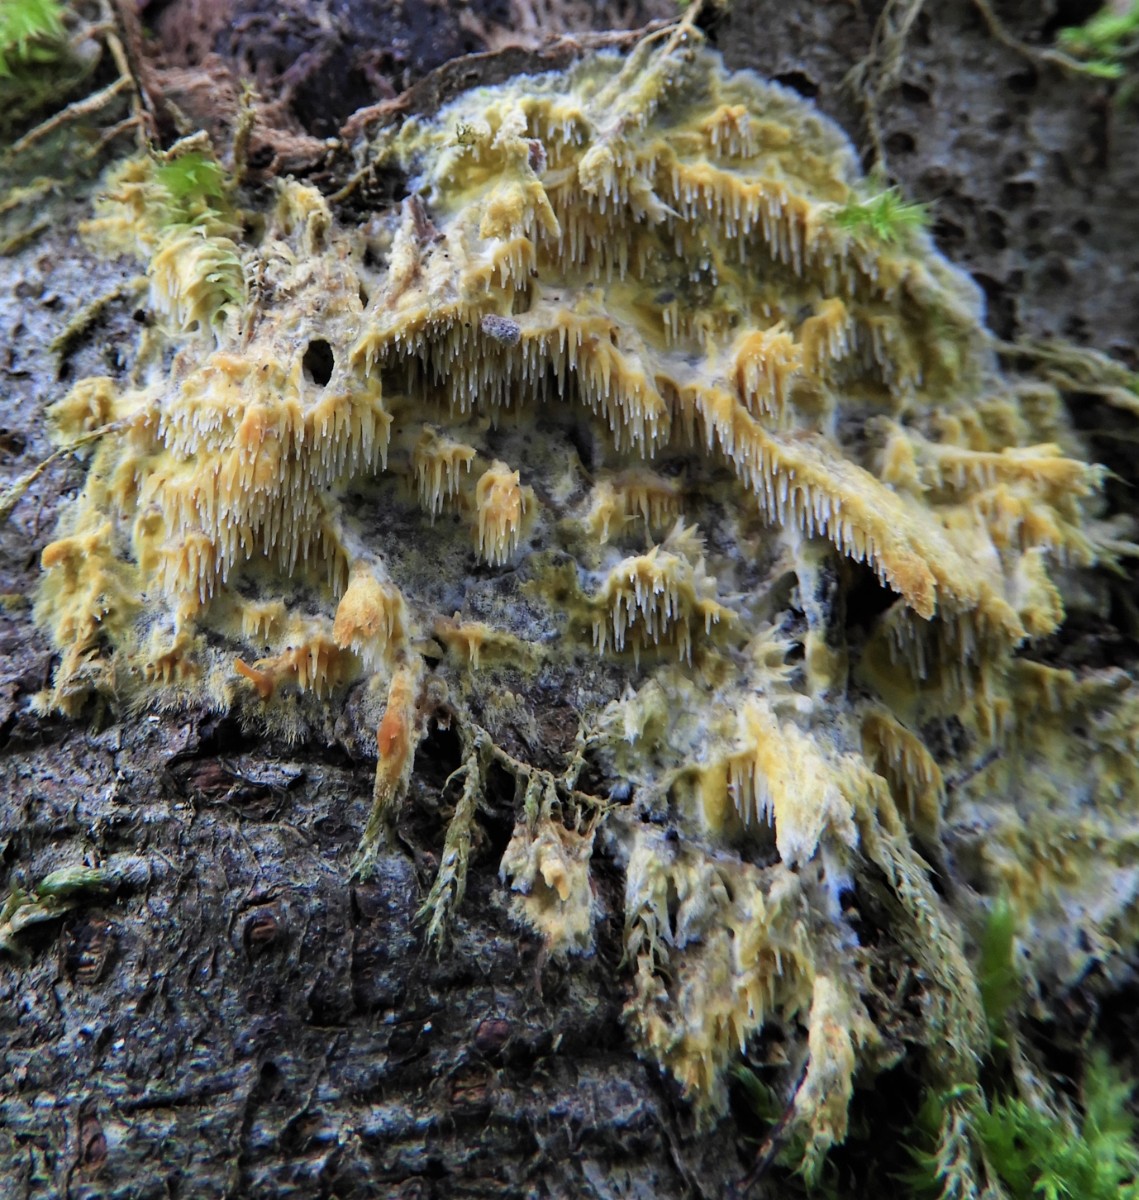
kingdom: Fungi
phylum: Basidiomycota
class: Agaricomycetes
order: Corticiales
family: Corticiaceae
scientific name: Corticiaceae
